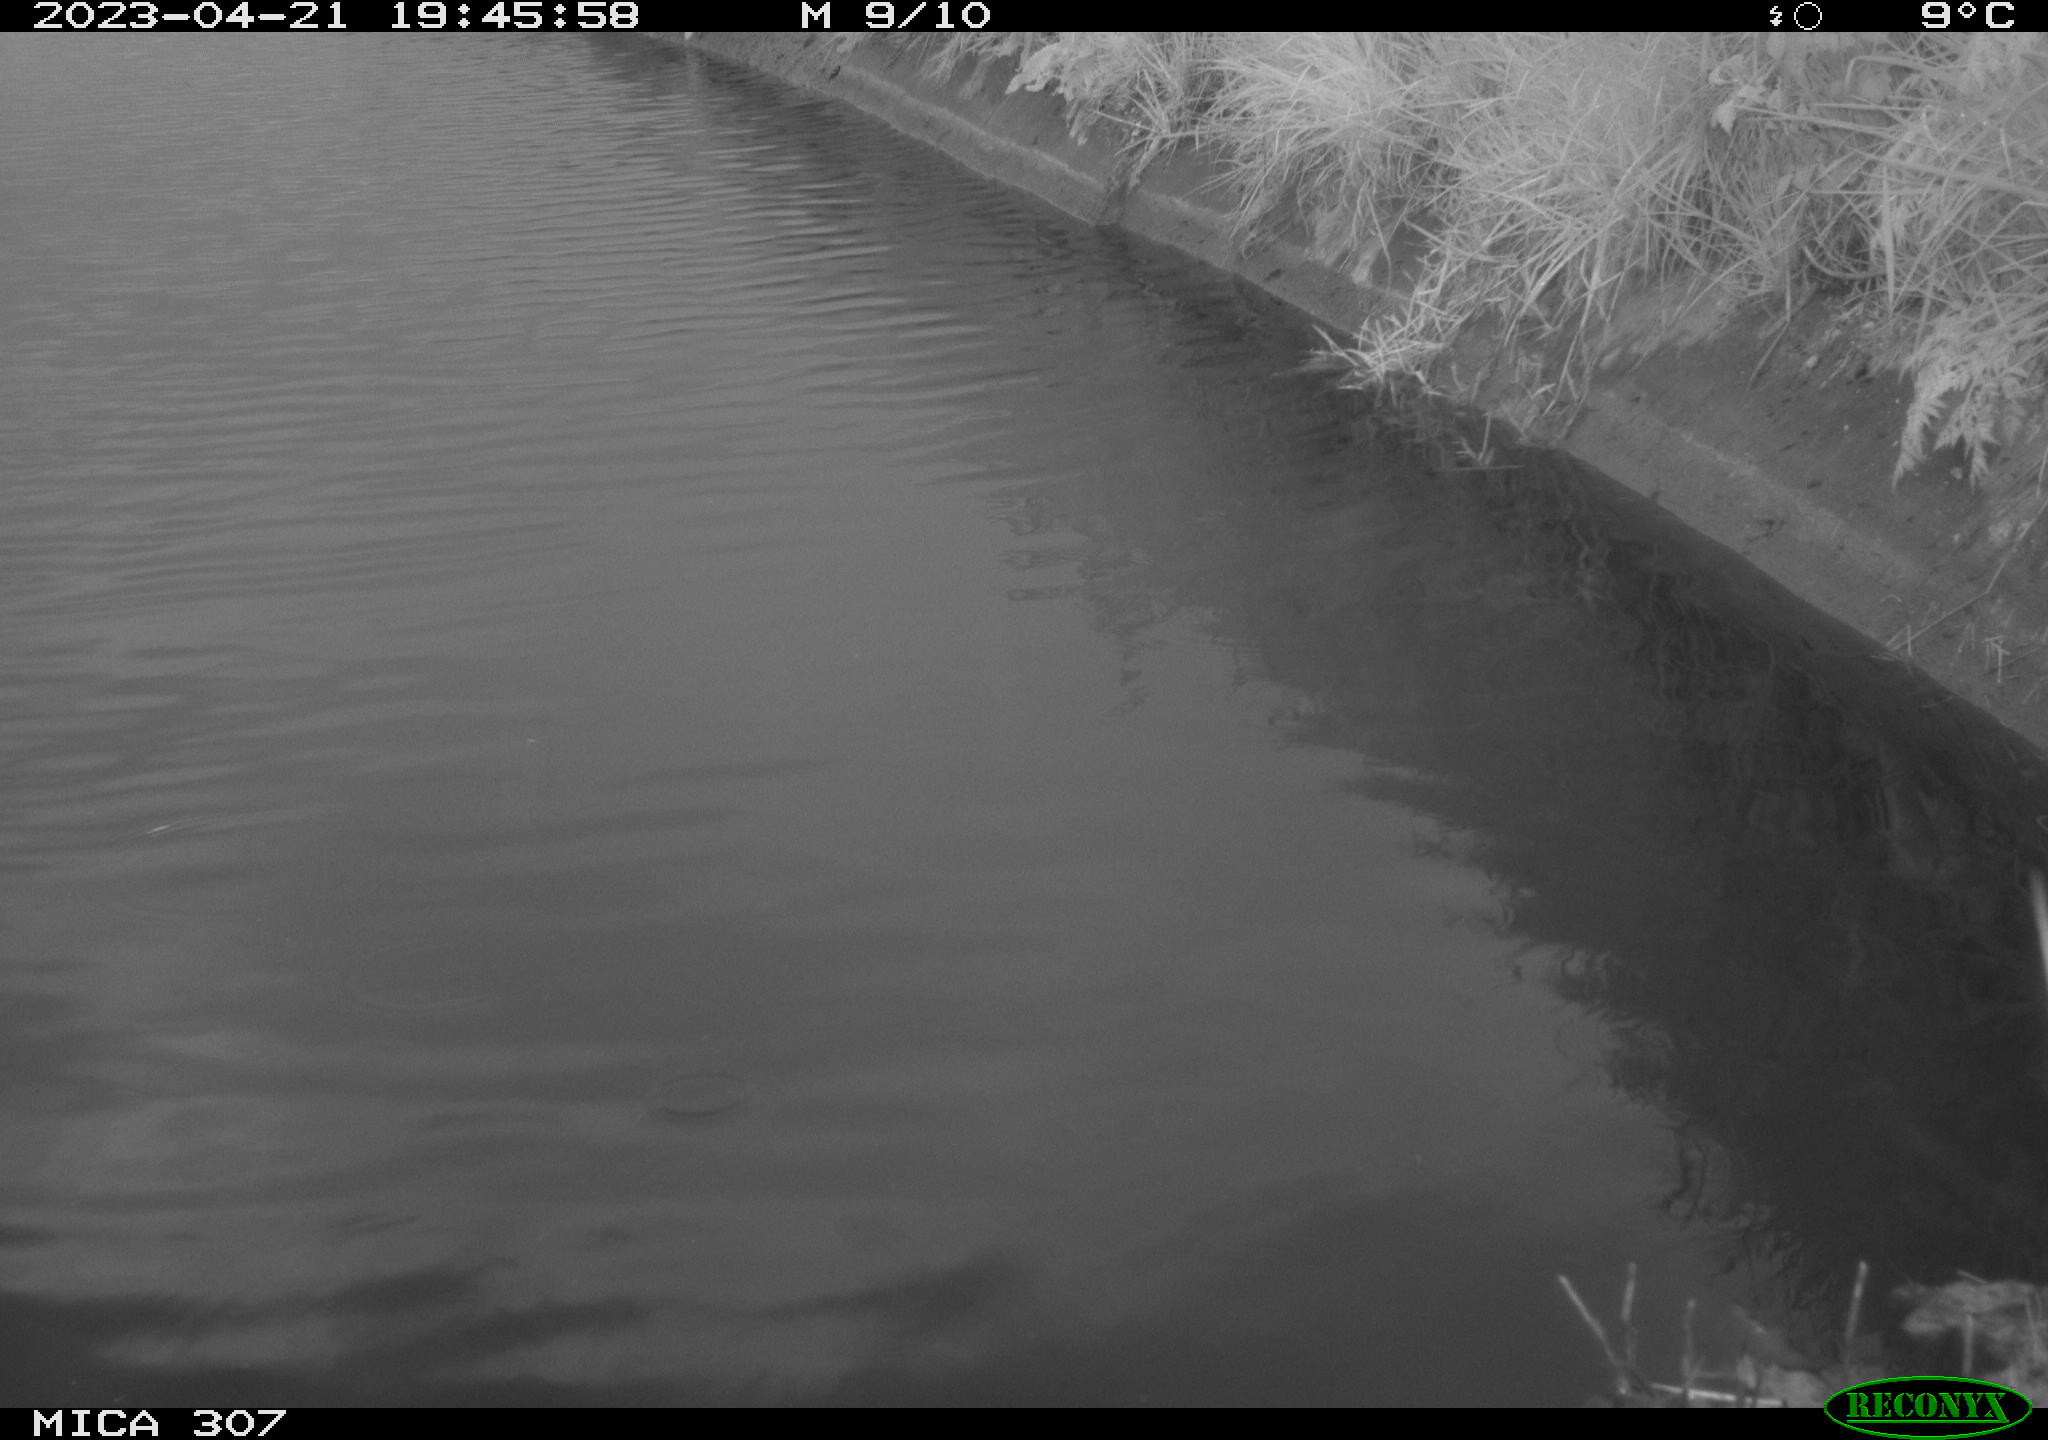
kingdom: Animalia
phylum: Chordata
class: Aves
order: Anseriformes
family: Anatidae
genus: Anas
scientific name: Anas
